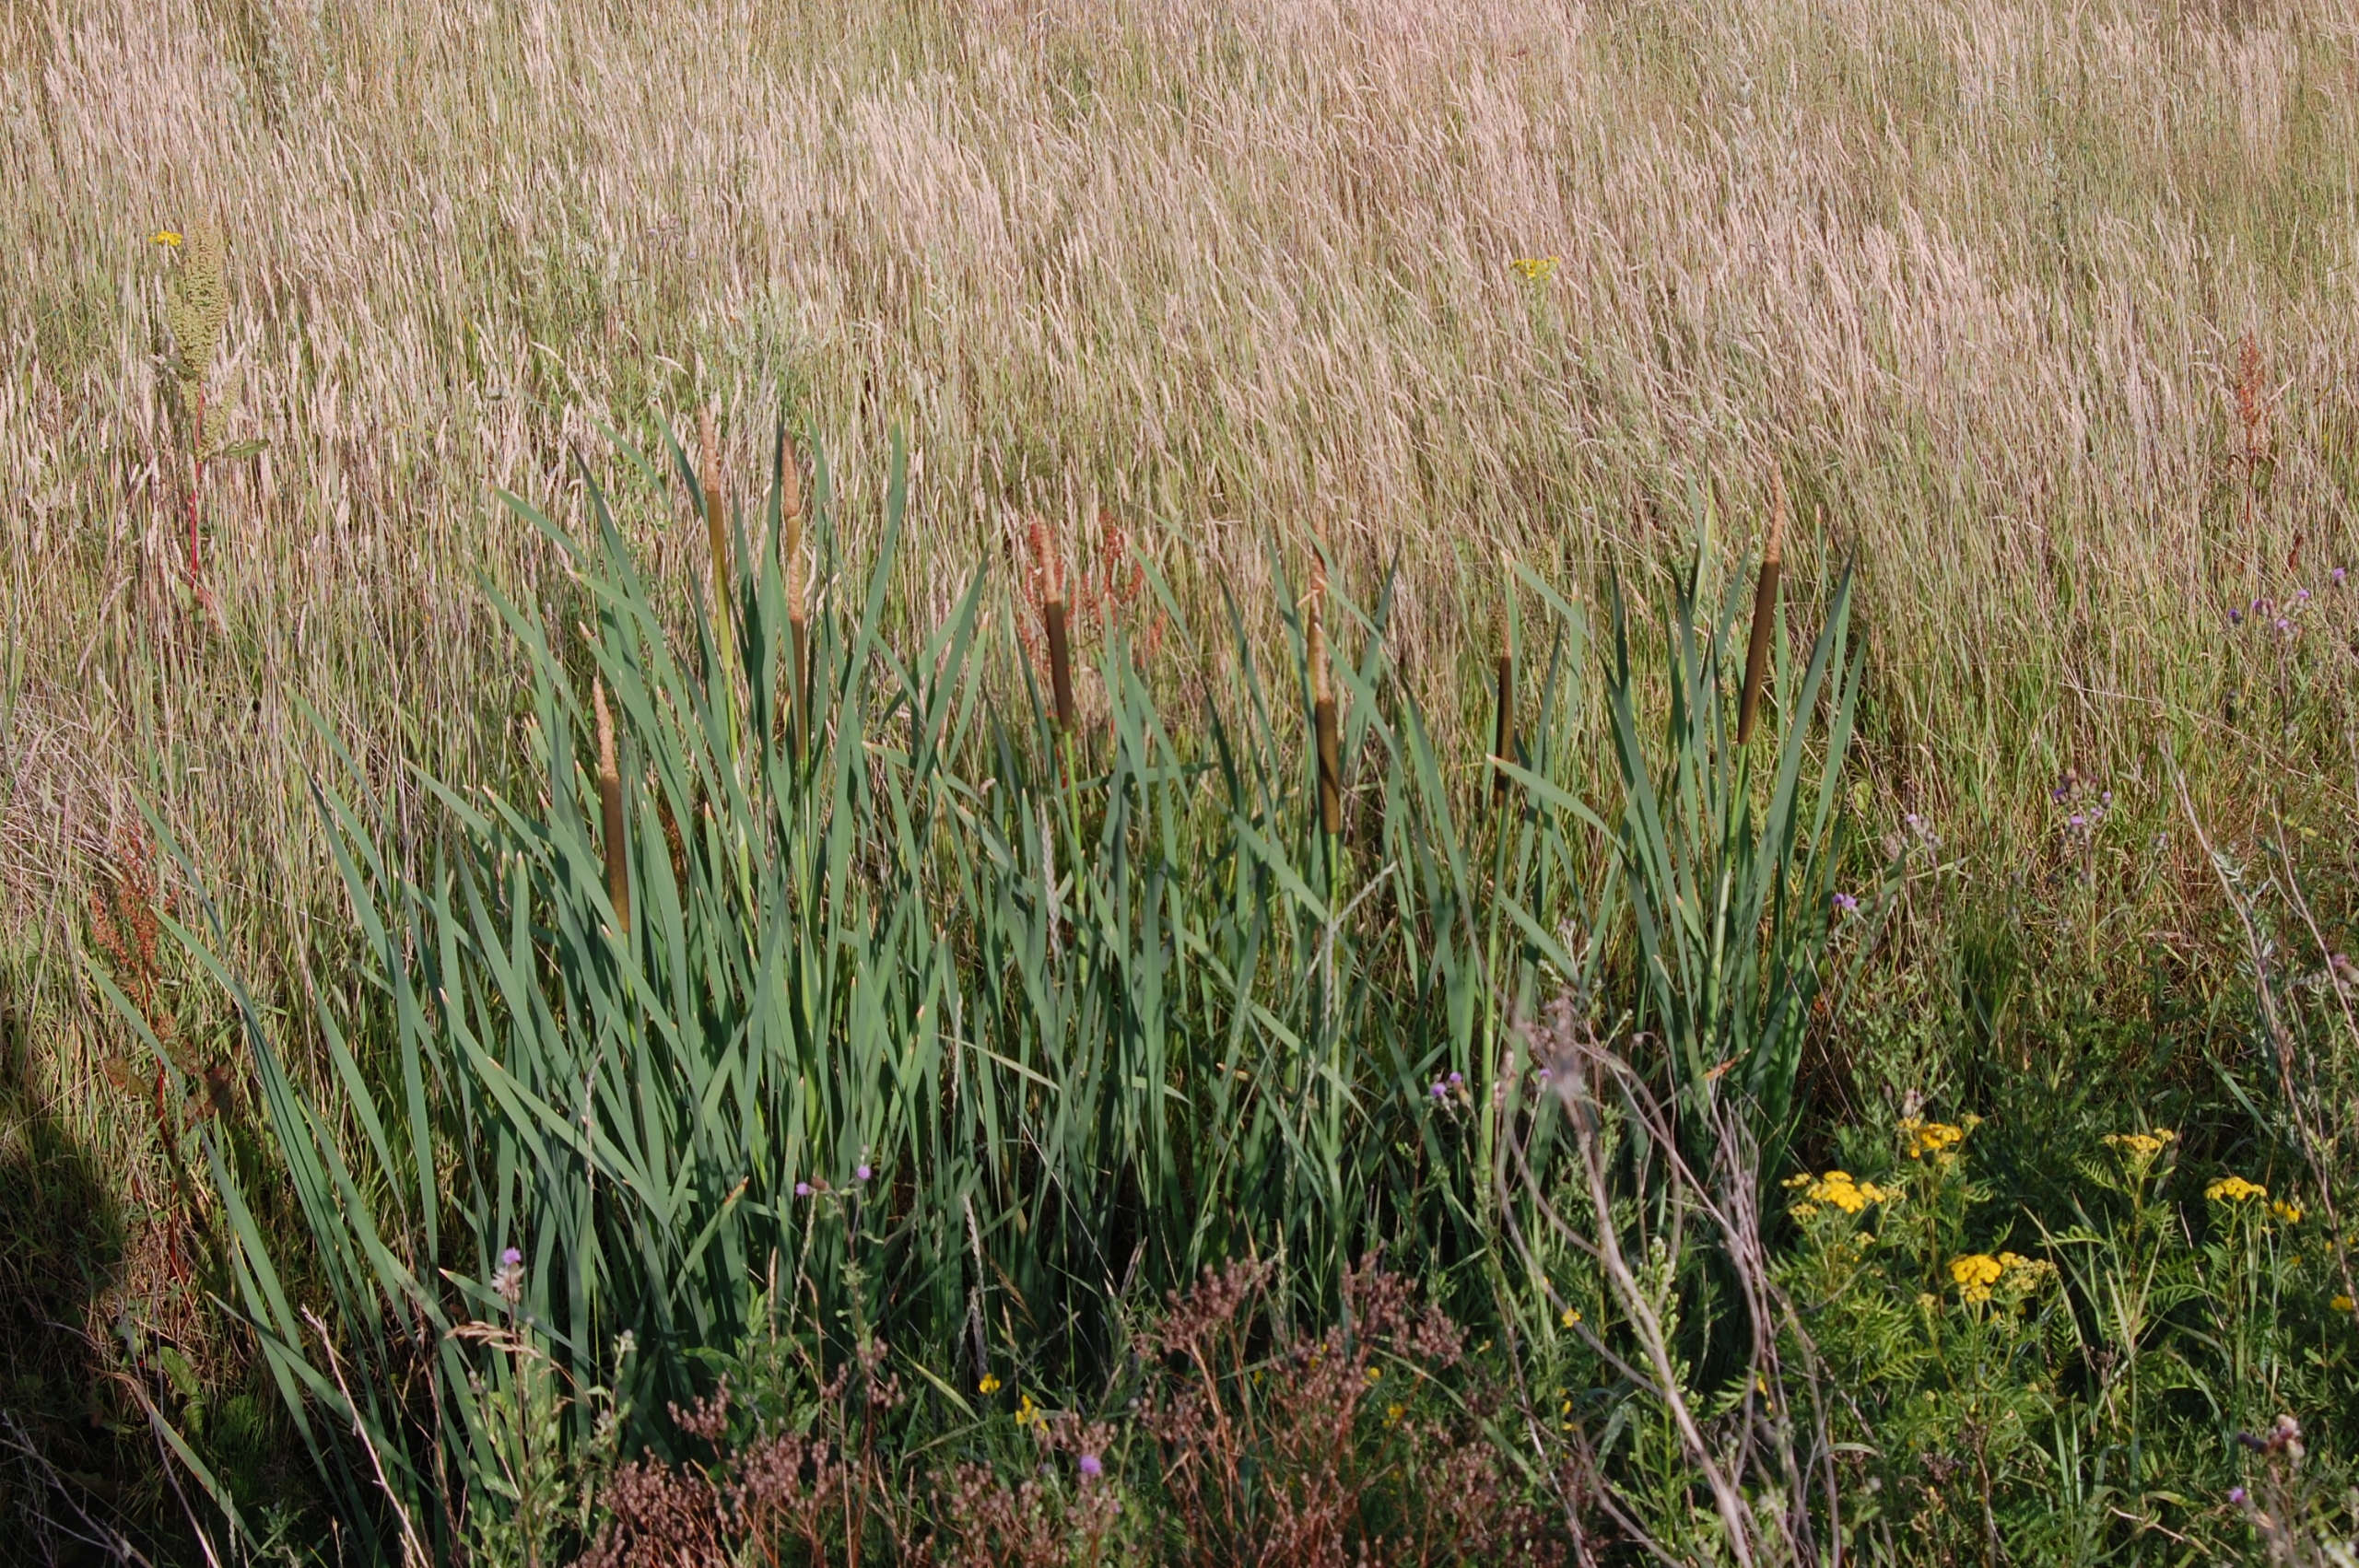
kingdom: Plantae
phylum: Tracheophyta
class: Liliopsida
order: Poales
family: Typhaceae
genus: Typha
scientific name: Typha latifolia
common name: Bredbladet dunhammer
